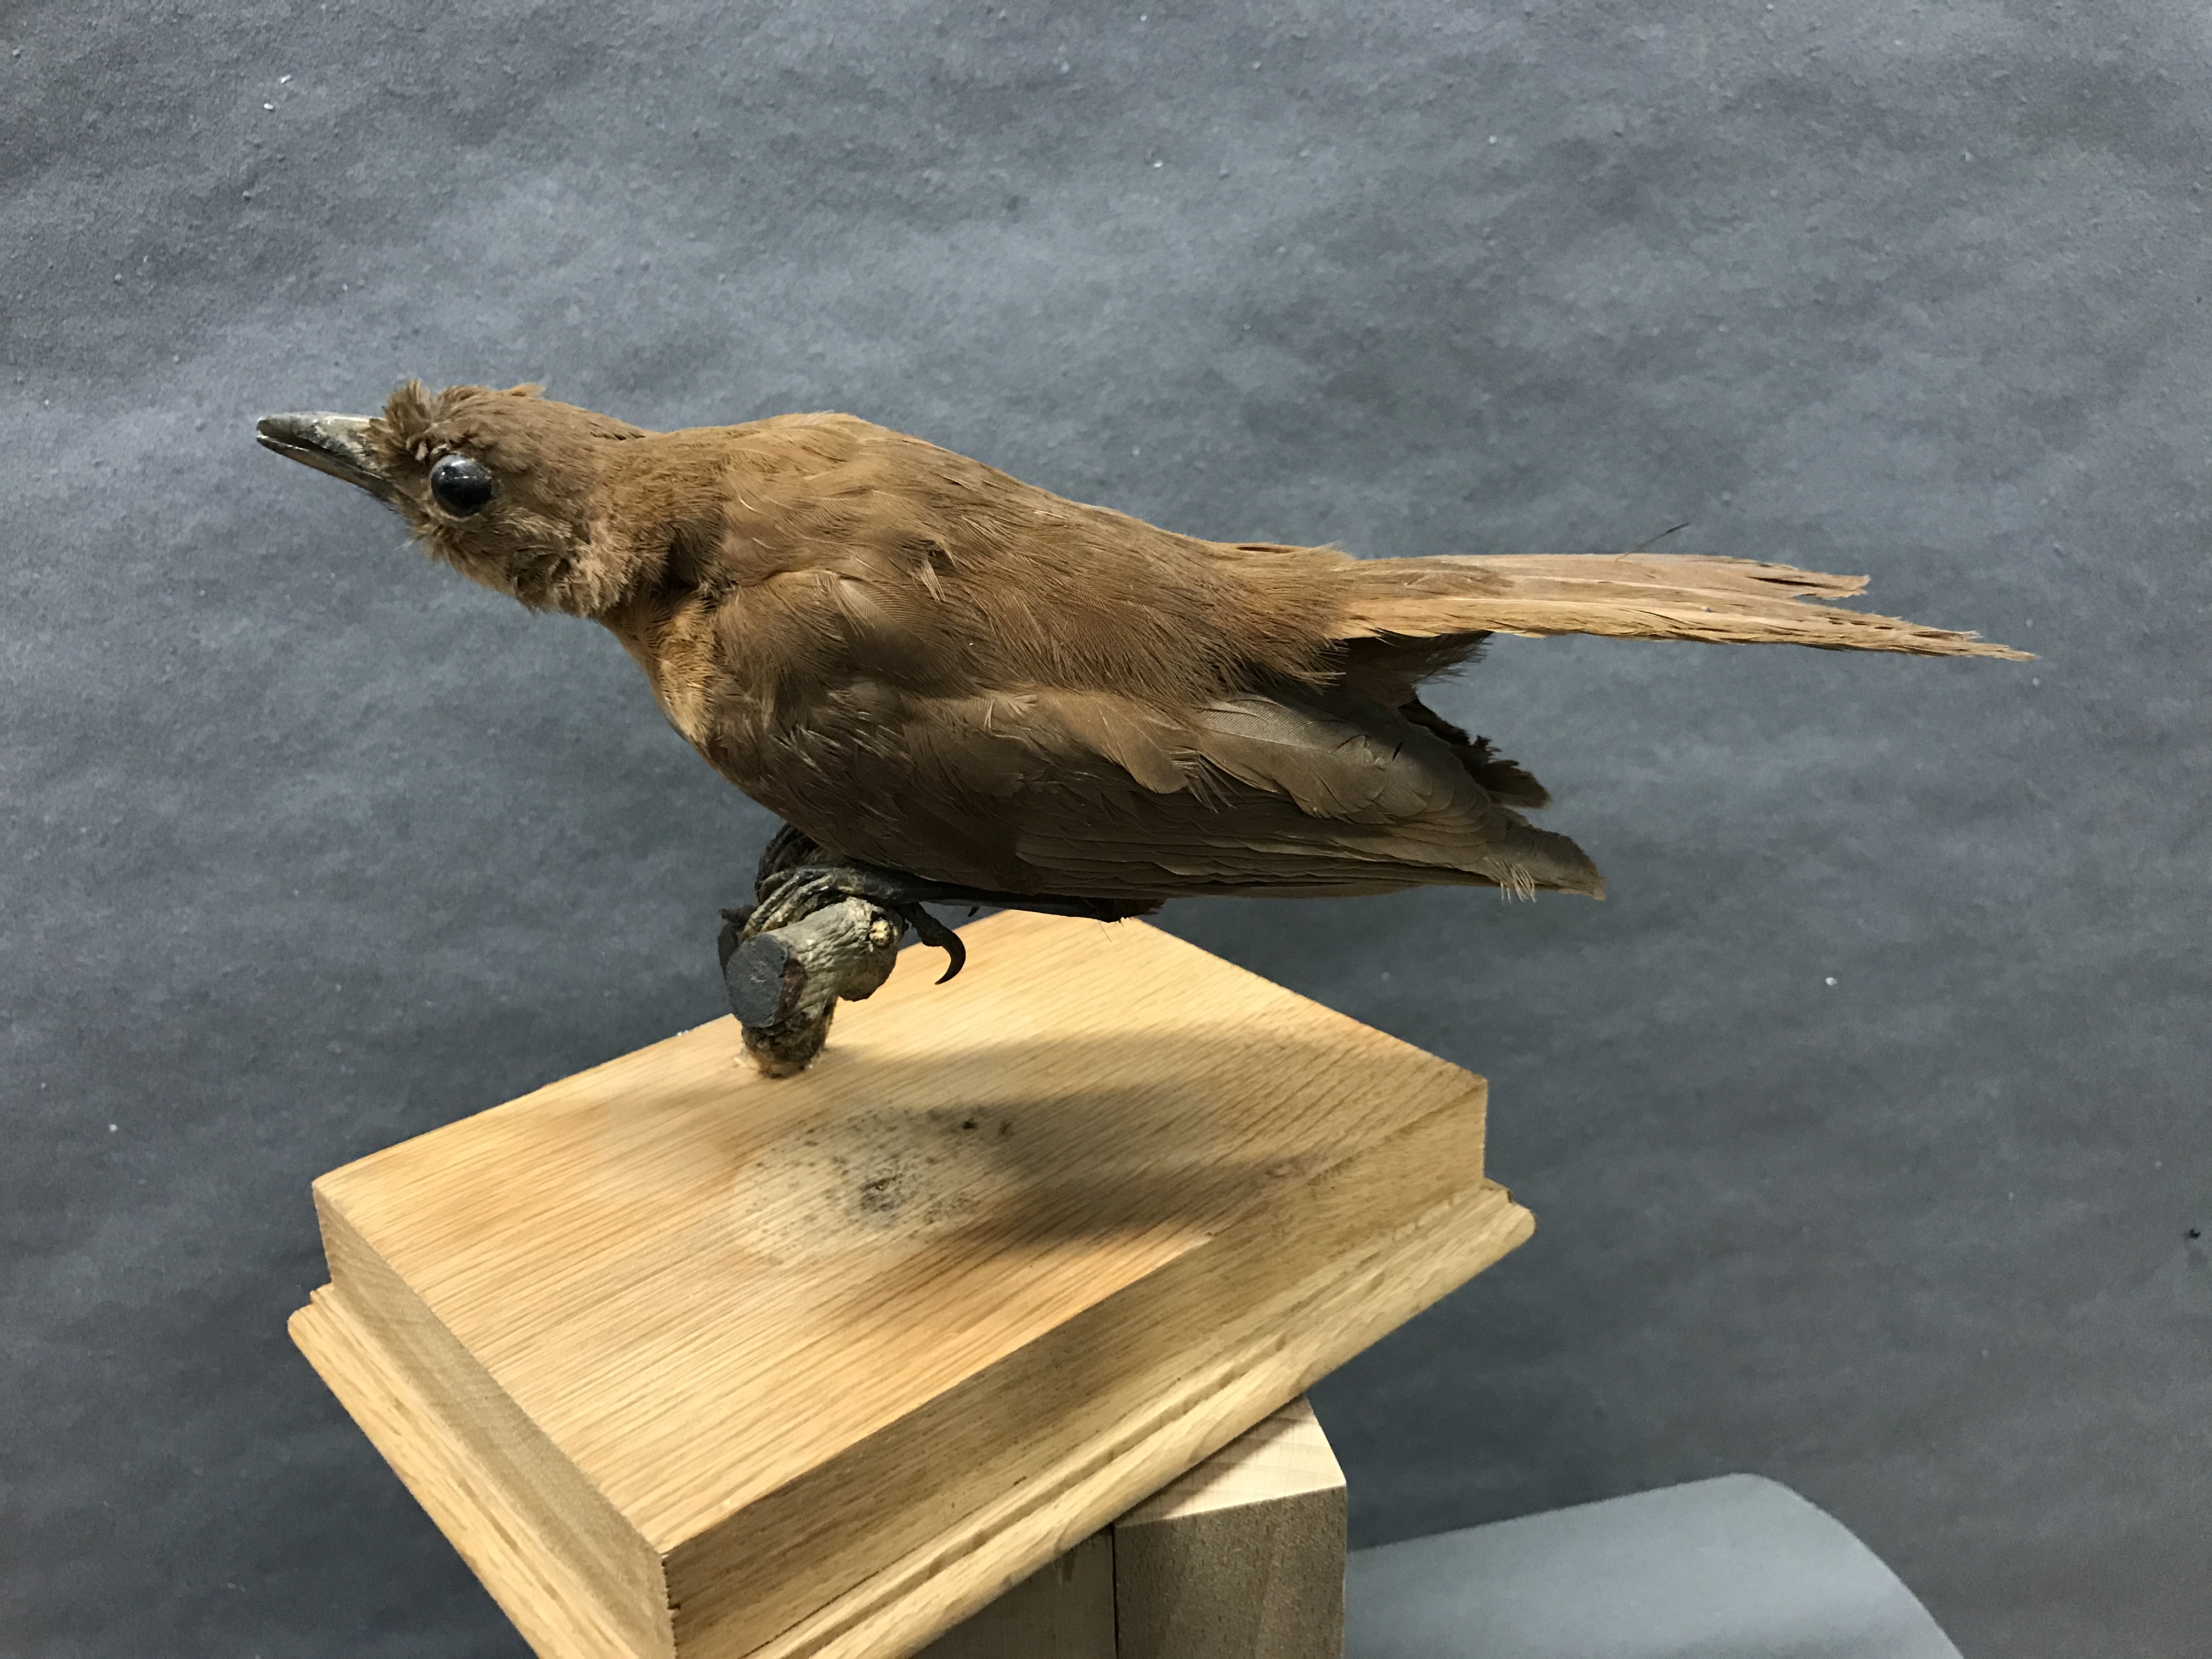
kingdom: Animalia
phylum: Chordata
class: Aves
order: Passeriformes
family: Campephagidae
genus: Coracina
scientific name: Coracina melas
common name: Black cicadabird
